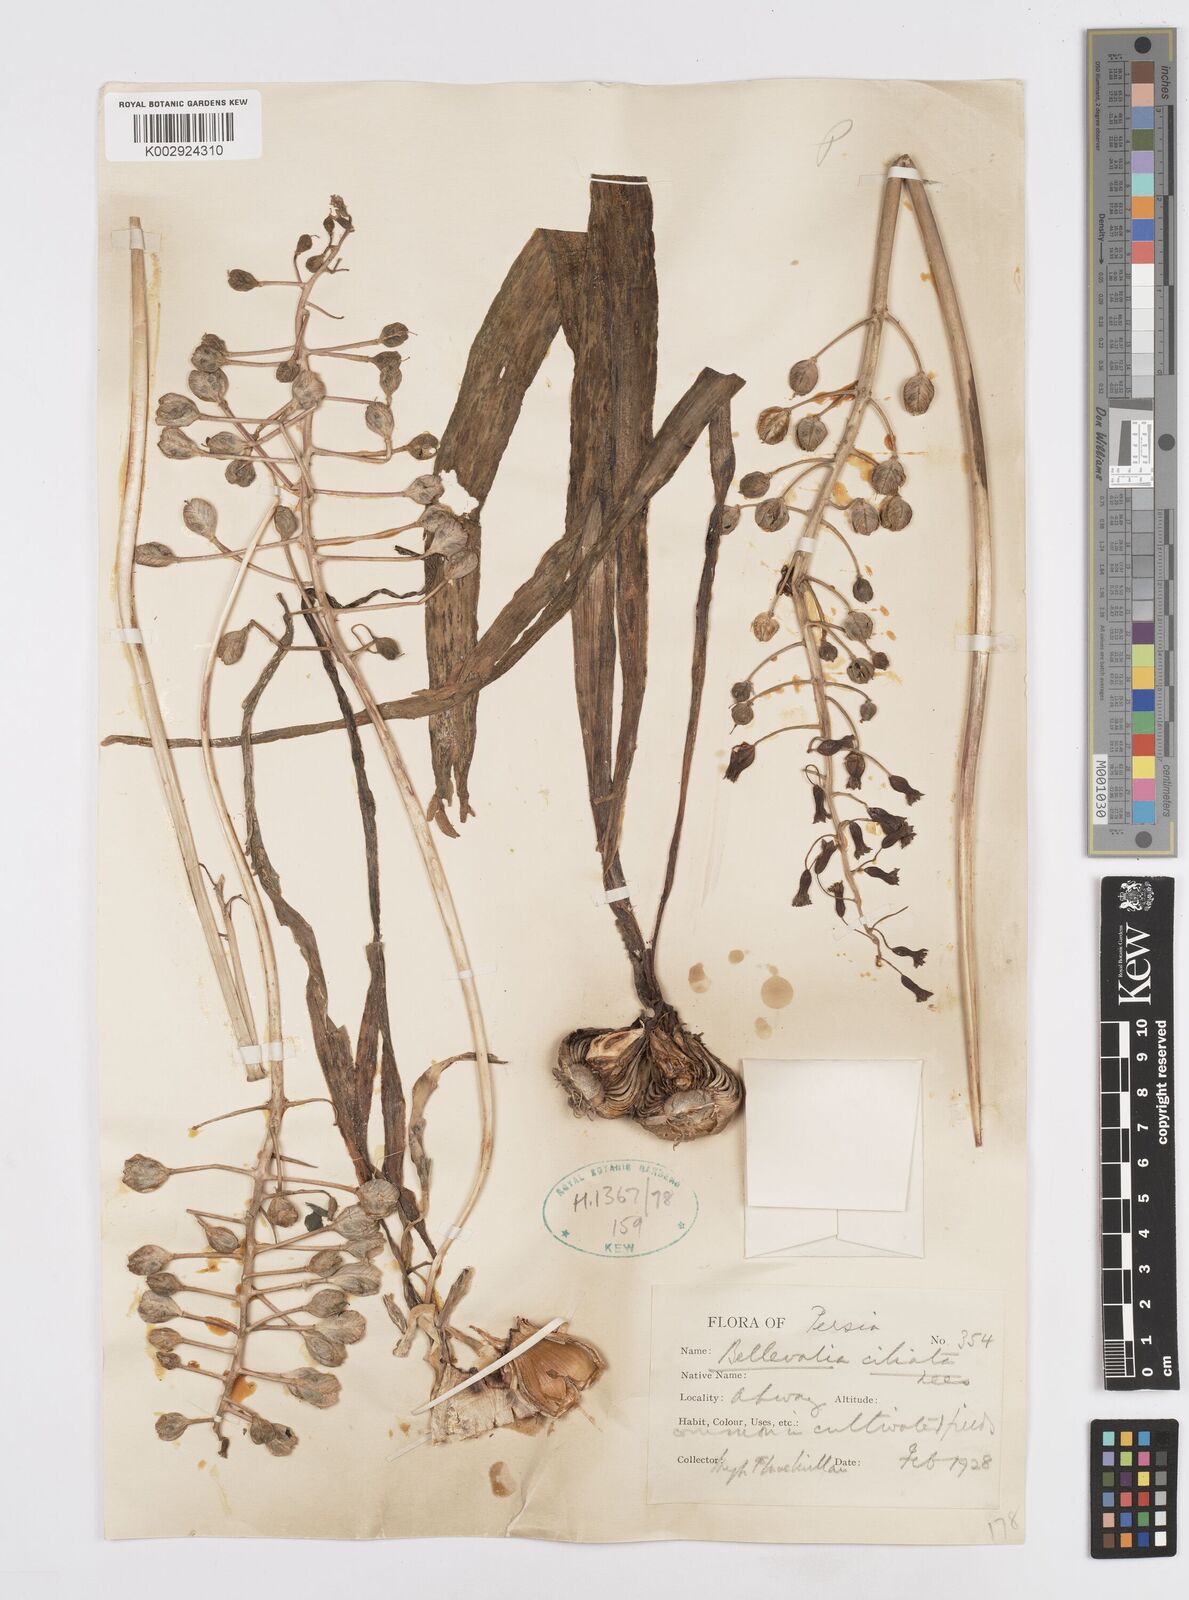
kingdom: Plantae
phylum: Tracheophyta
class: Liliopsida
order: Asparagales
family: Asparagaceae
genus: Bellevalia
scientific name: Bellevalia ciliata
